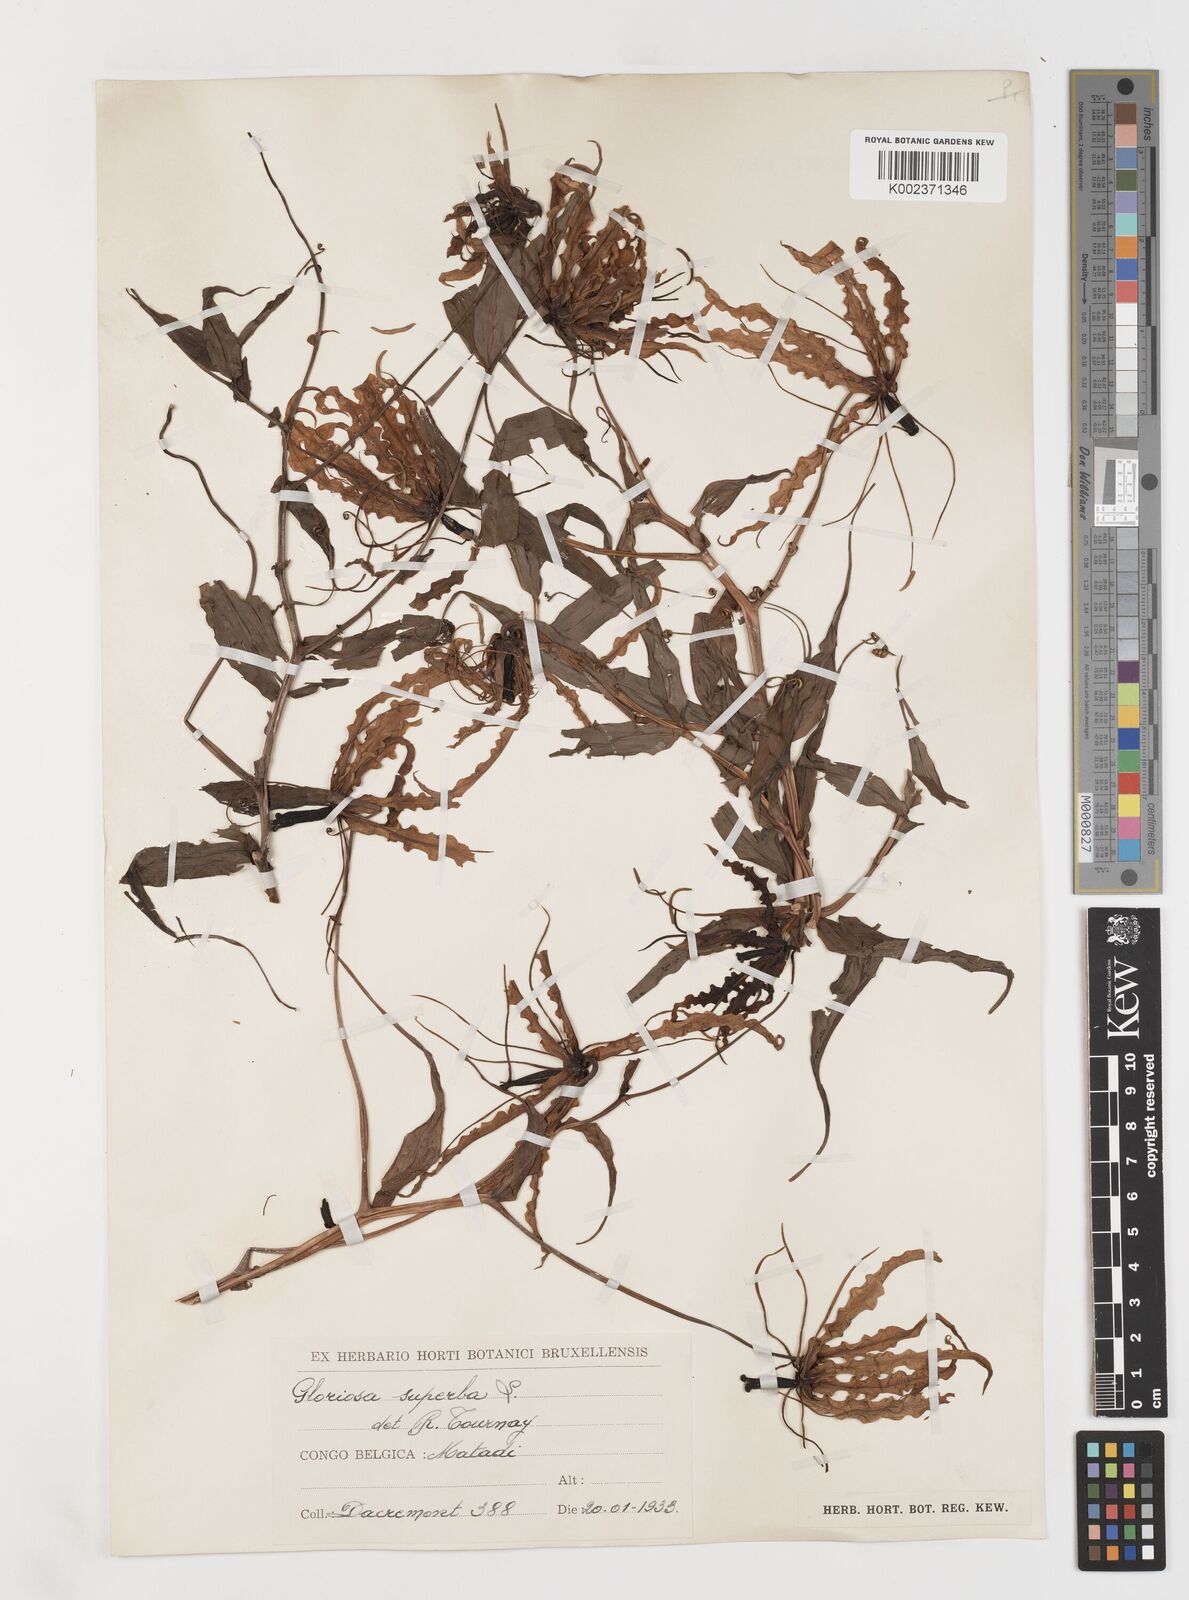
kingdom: Plantae
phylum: Tracheophyta
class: Liliopsida
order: Liliales
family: Colchicaceae
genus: Gloriosa
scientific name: Gloriosa superba
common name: Flame lily
